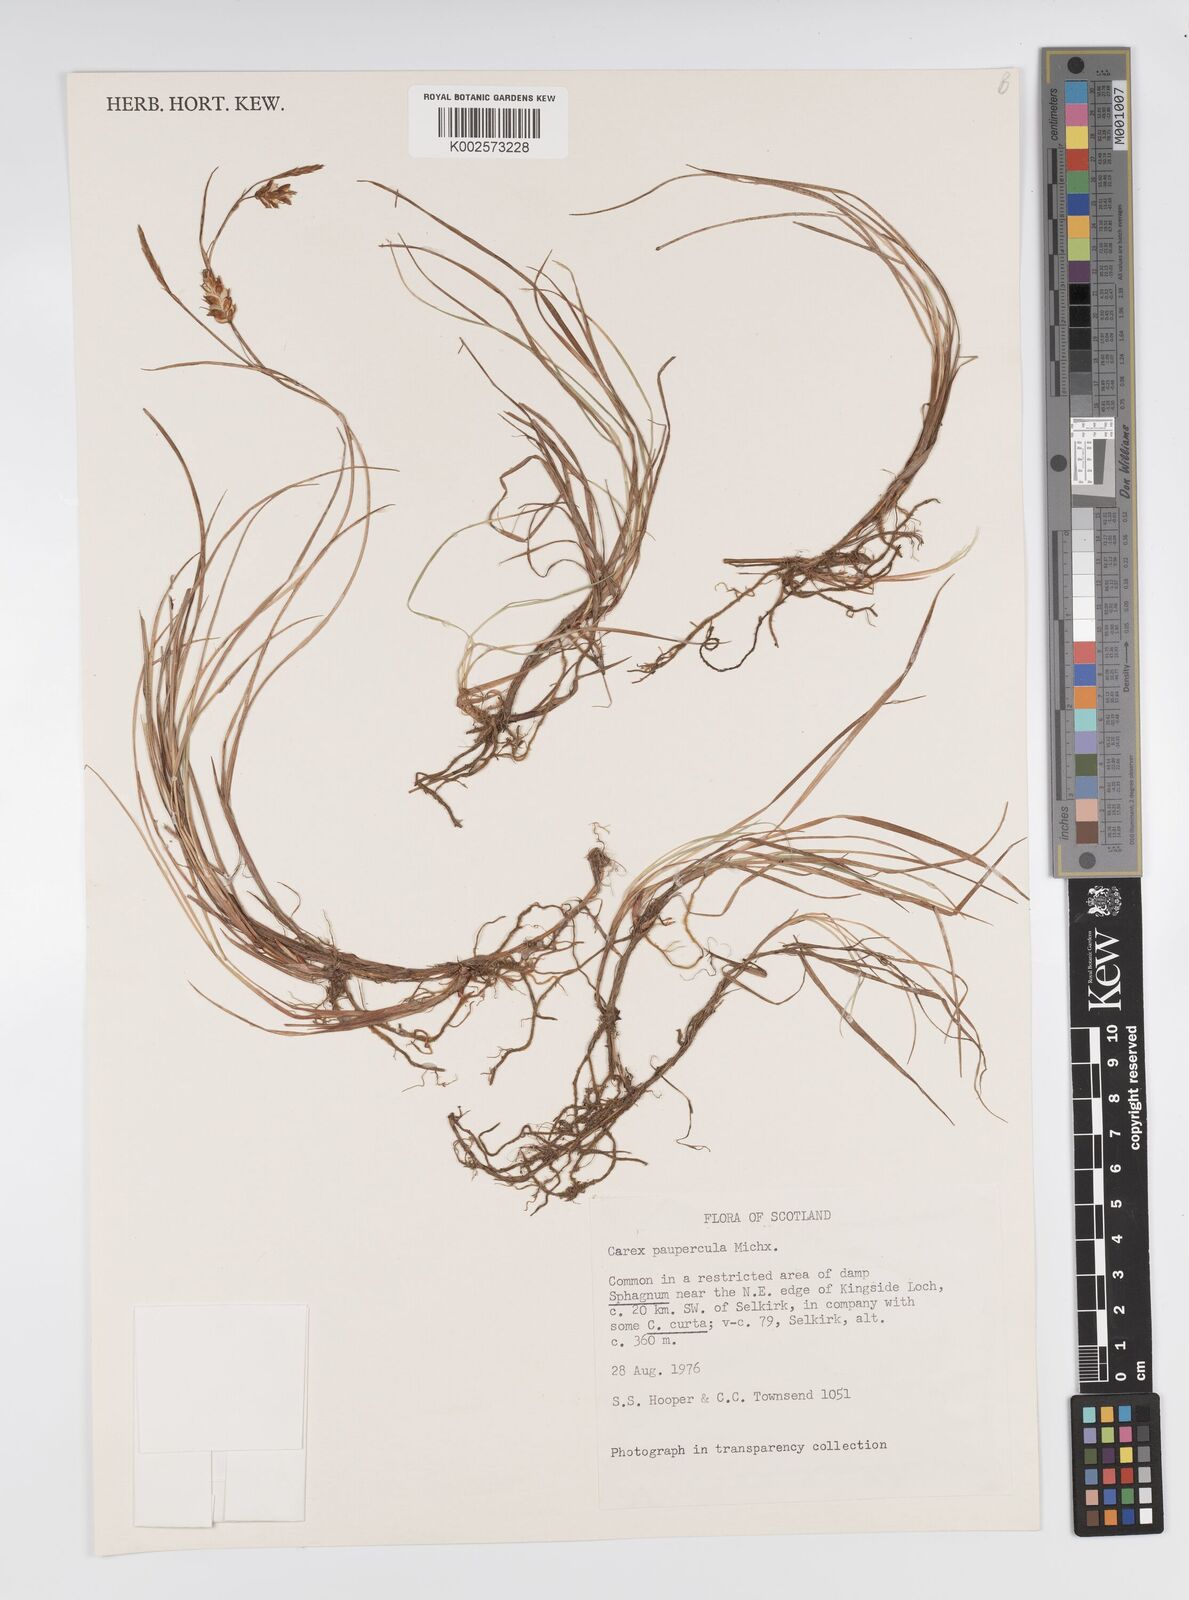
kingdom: Plantae
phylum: Tracheophyta
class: Liliopsida
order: Poales
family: Cyperaceae
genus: Carex
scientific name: Carex magellanica
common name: Bog sedge
